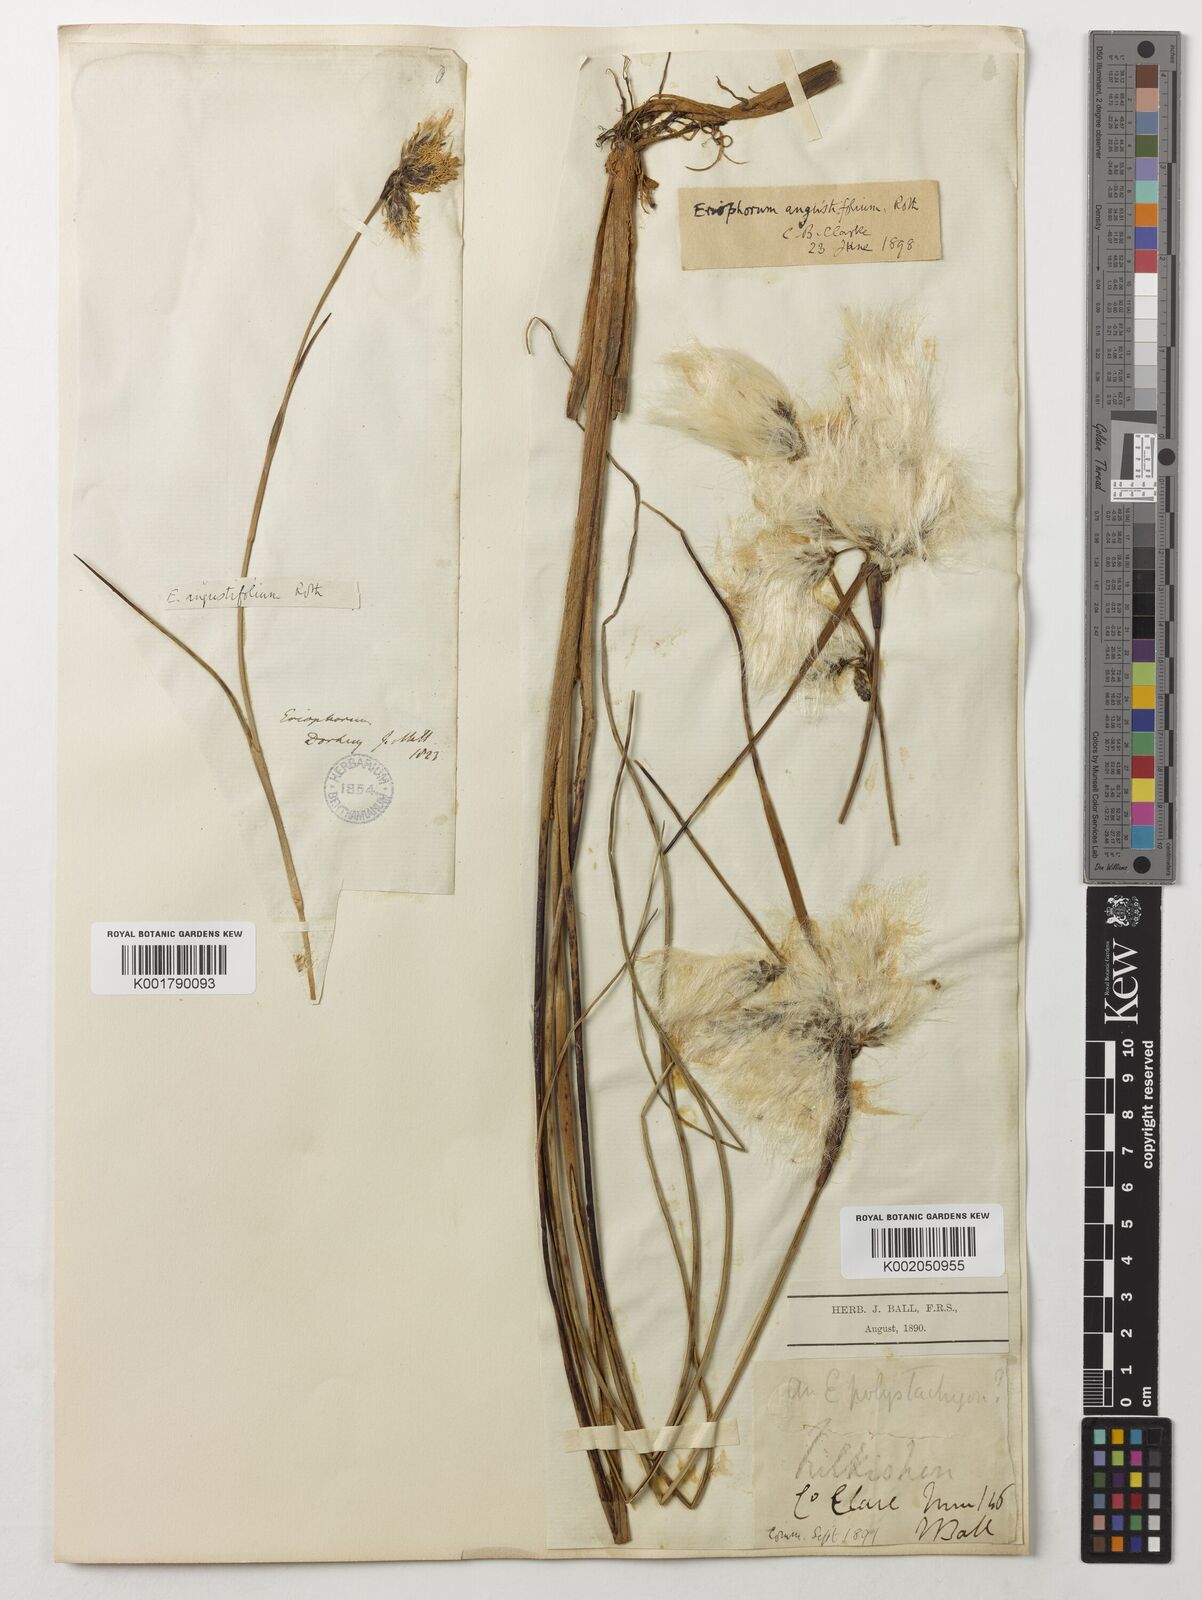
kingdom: Plantae
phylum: Tracheophyta
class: Liliopsida
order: Poales
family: Cyperaceae
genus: Eriophorum
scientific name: Eriophorum angustifolium
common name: Common cottongrass
